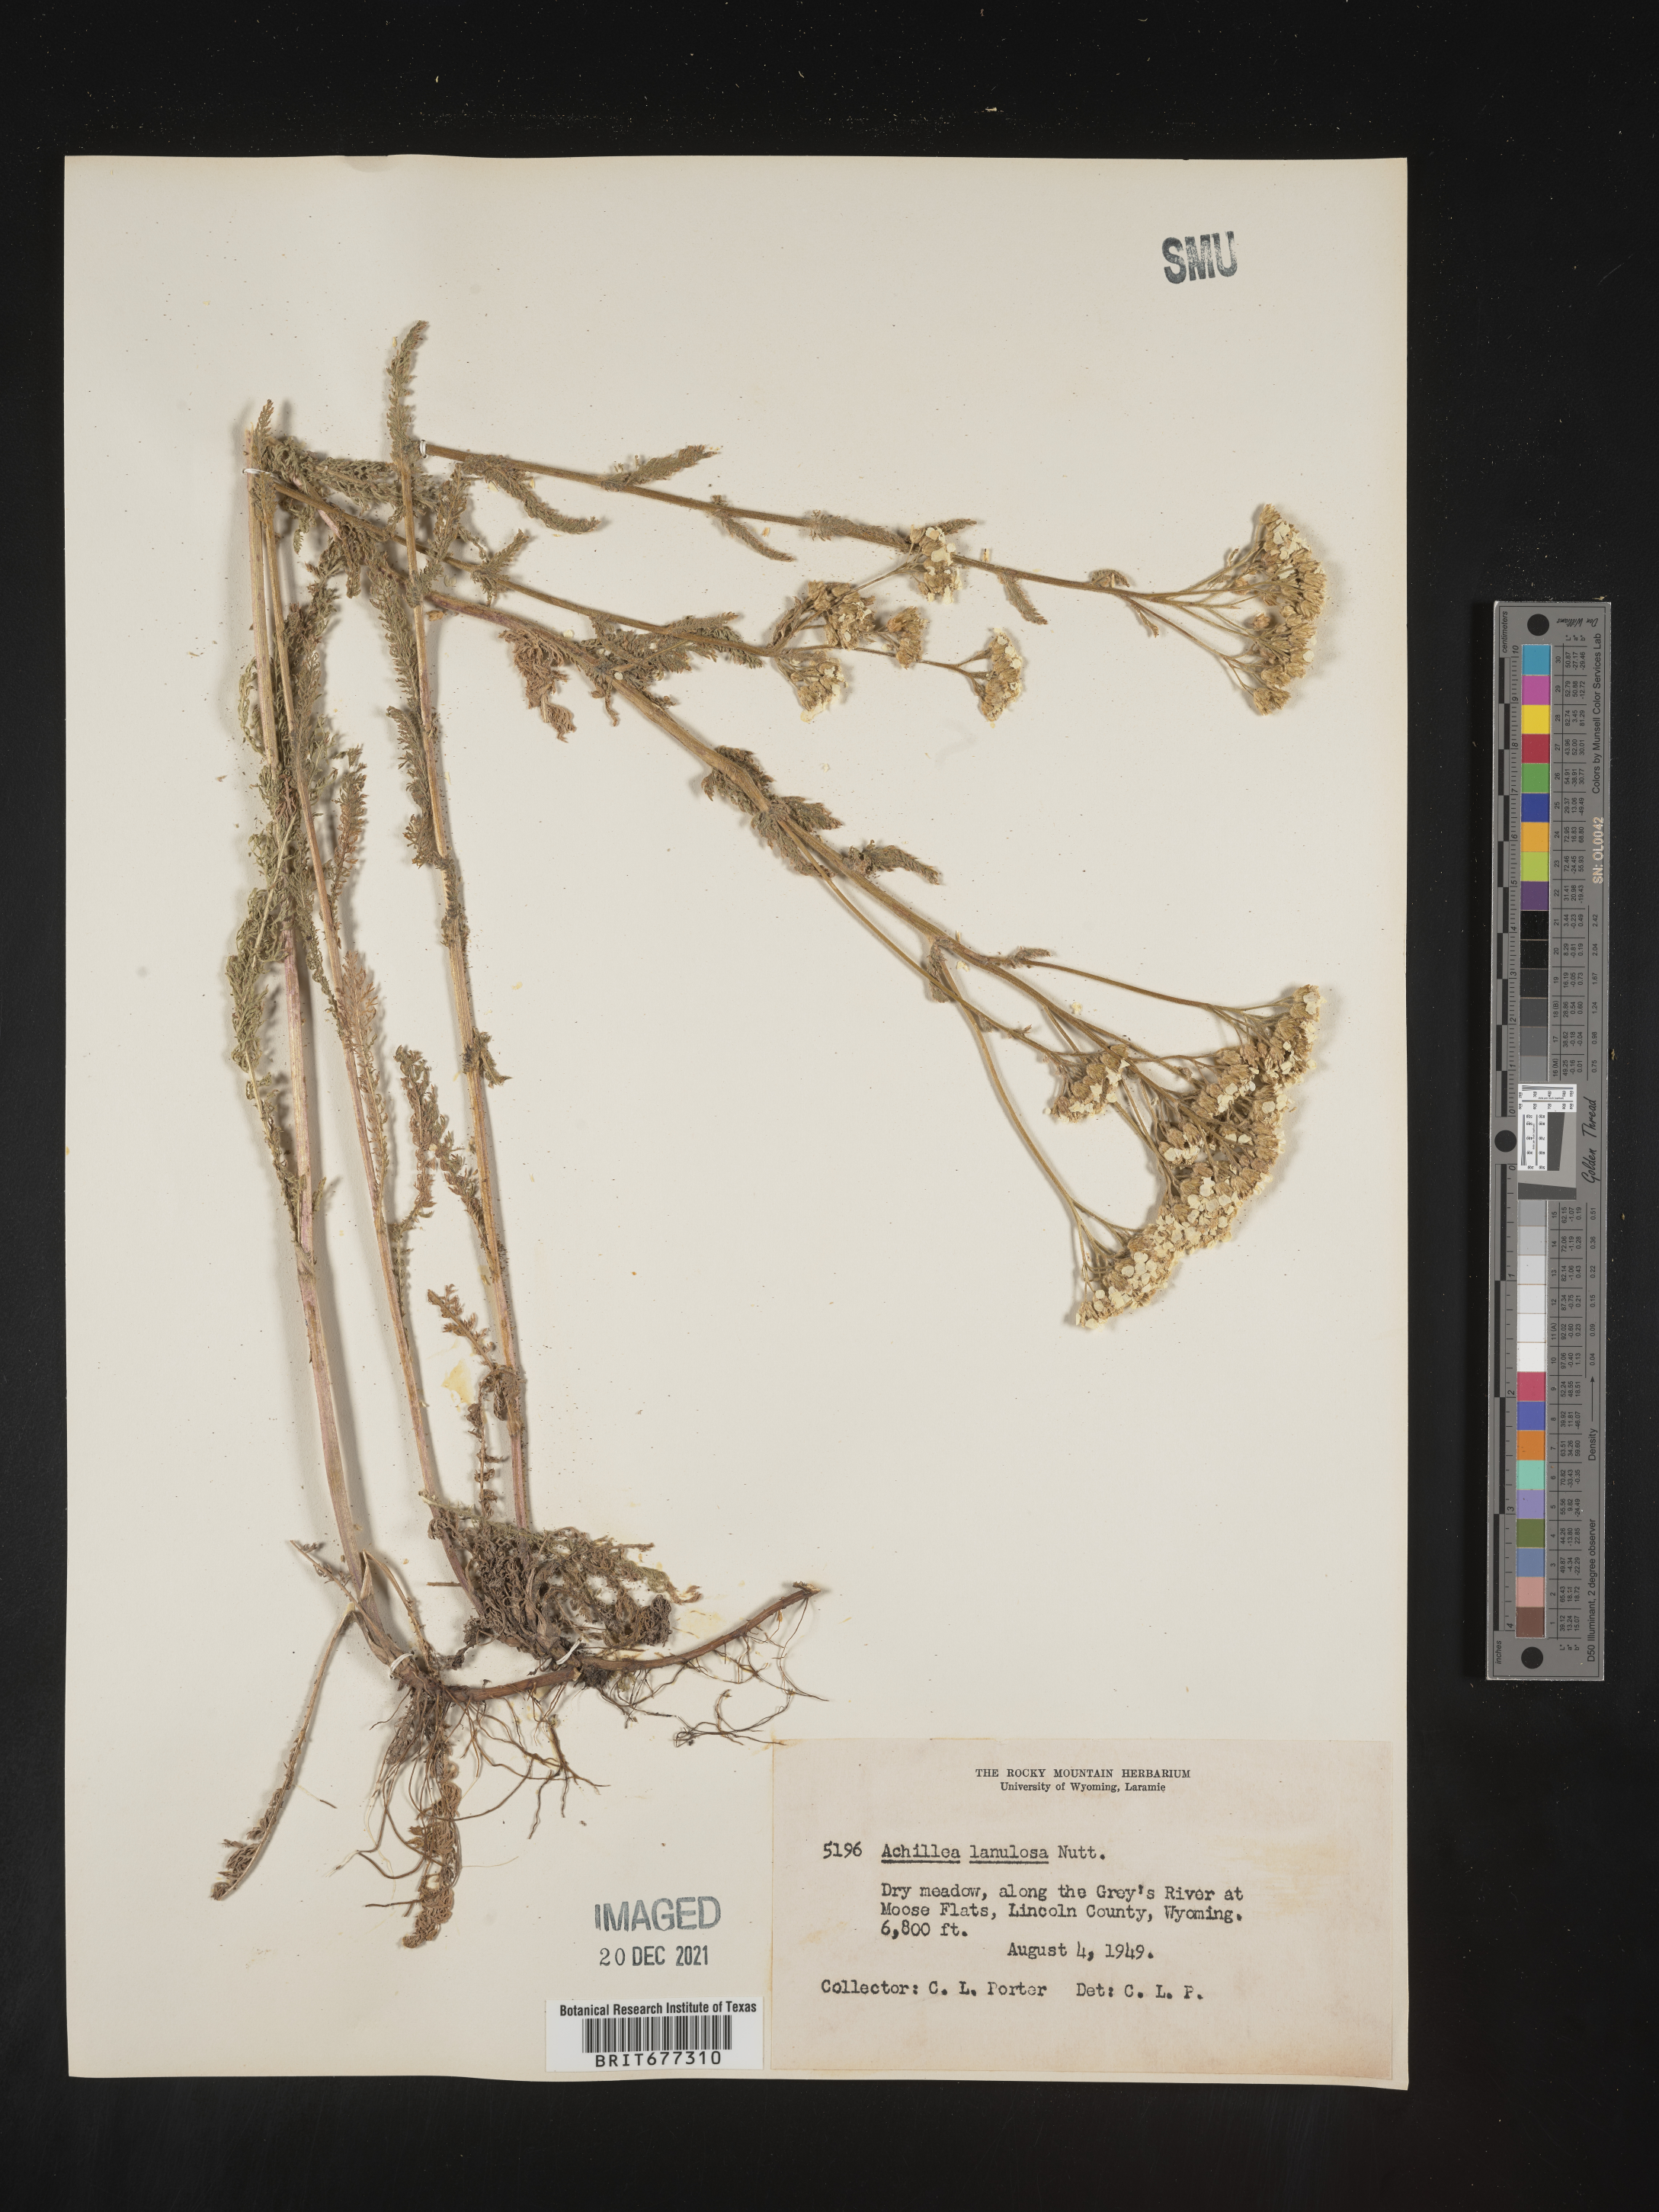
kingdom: Plantae
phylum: Tracheophyta
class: Magnoliopsida
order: Asterales
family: Asteraceae
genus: Achillea
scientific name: Achillea millefolium
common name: Yarrow
